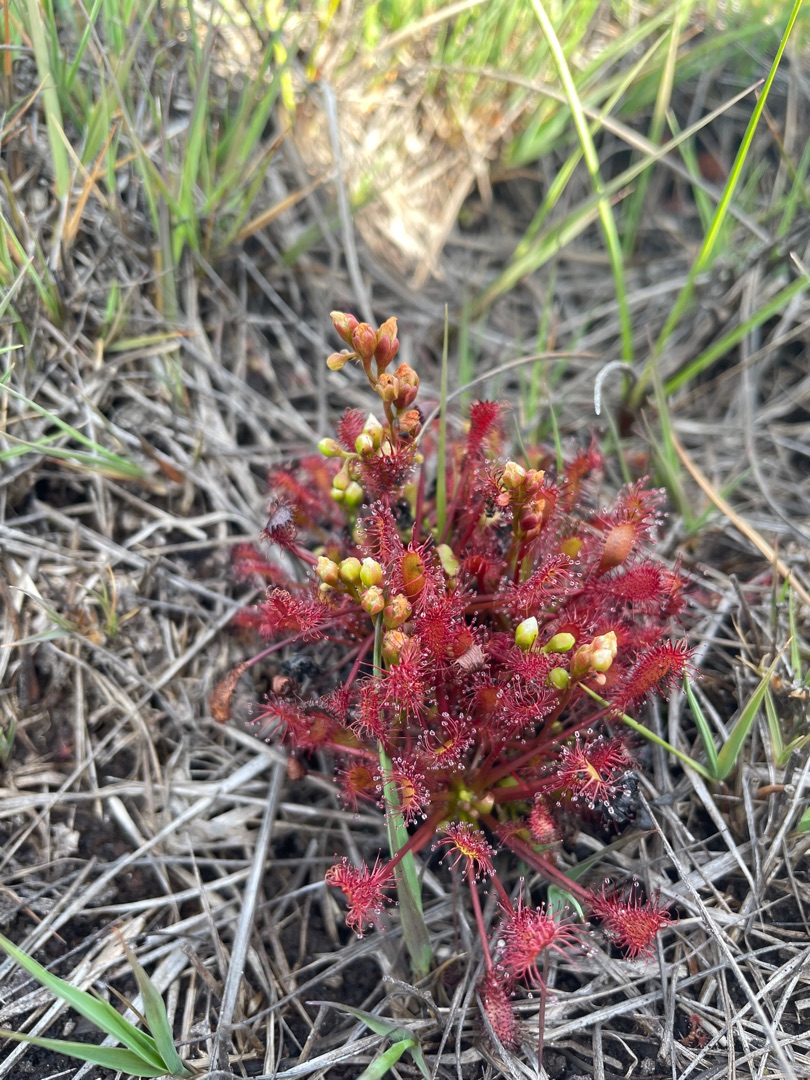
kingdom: Plantae
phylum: Tracheophyta
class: Magnoliopsida
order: Caryophyllales
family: Droseraceae
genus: Drosera
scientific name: Drosera intermedia
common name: Liden soldug
